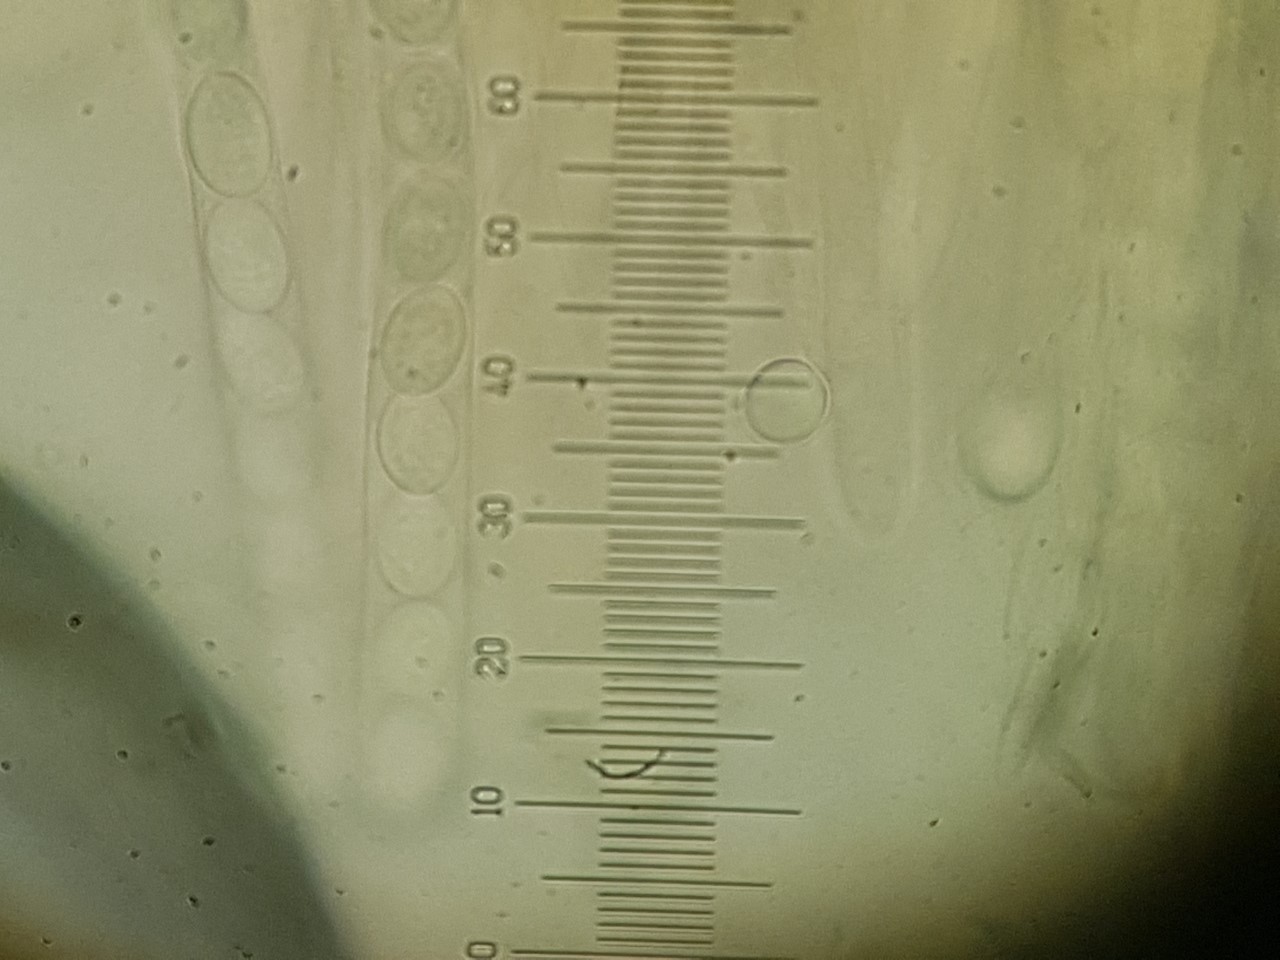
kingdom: Fungi
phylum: Ascomycota
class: Leotiomycetes
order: Helotiales
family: Lachnaceae
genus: Perrotia
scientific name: Perrotia gallica
